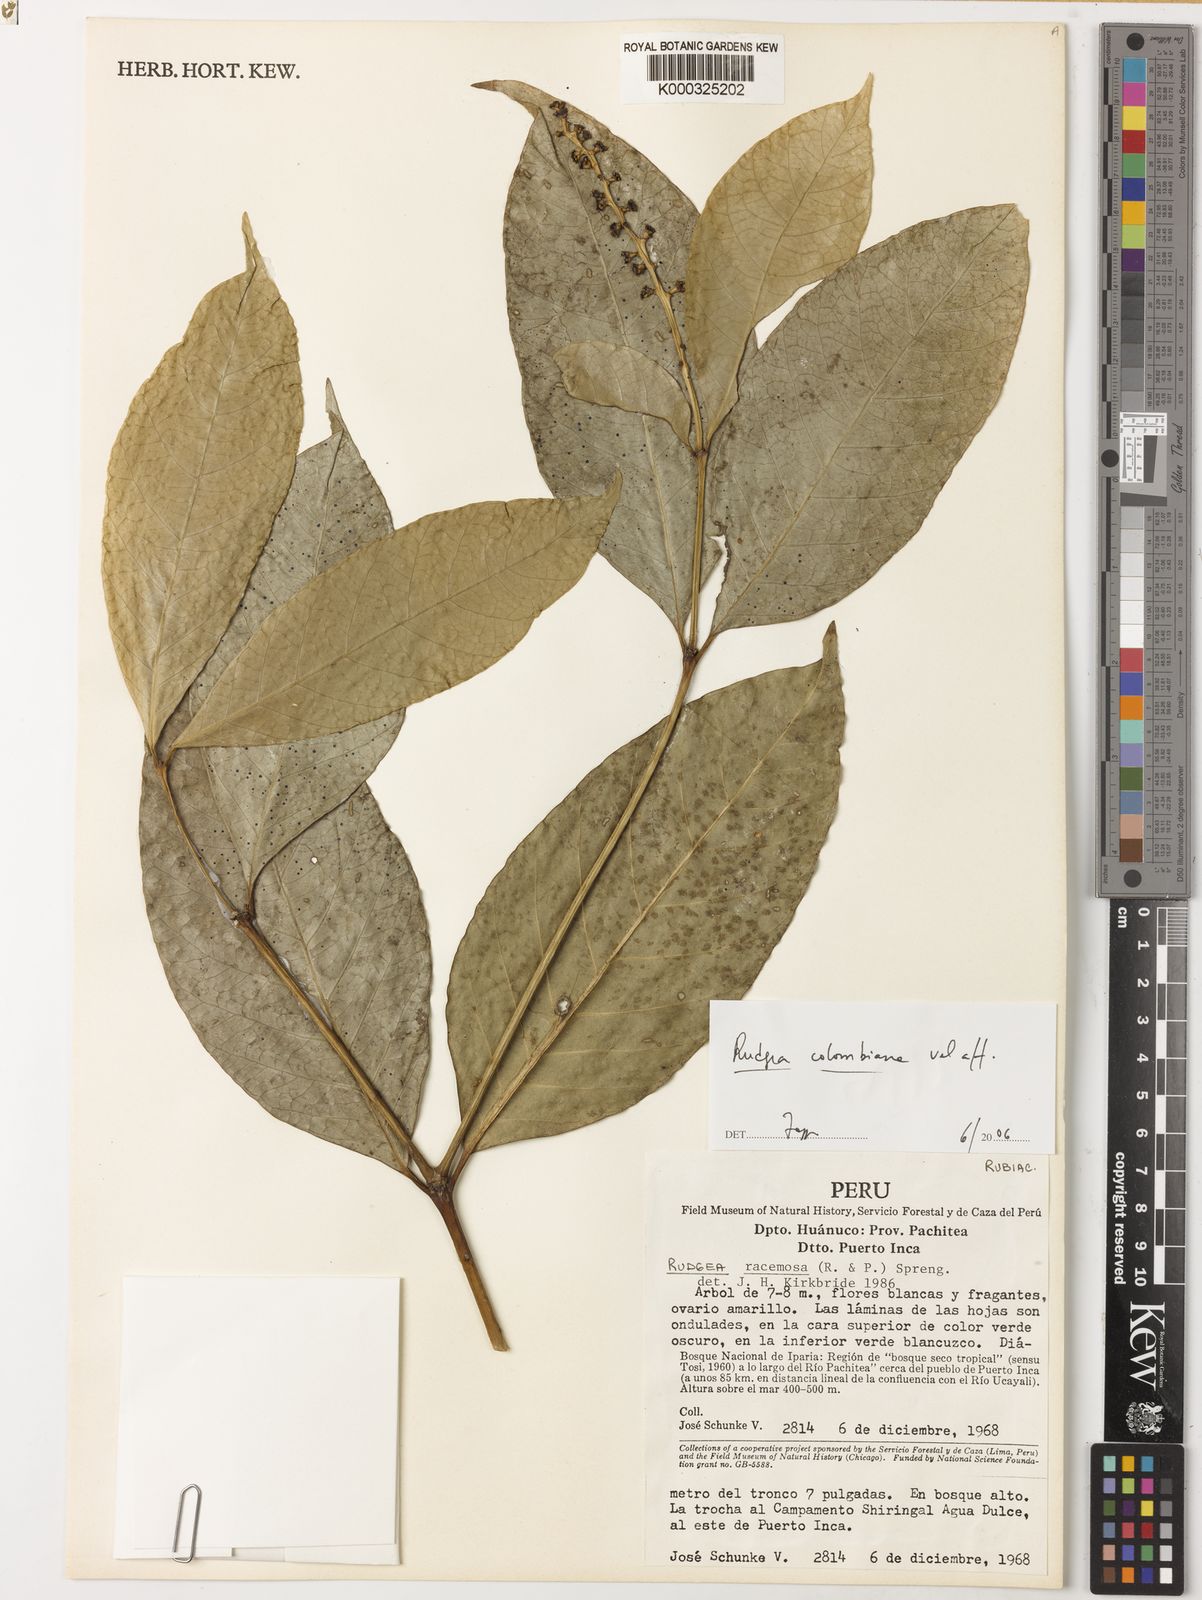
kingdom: Plantae
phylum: Tracheophyta
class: Magnoliopsida
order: Gentianales
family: Rubiaceae
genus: Rudgea
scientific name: Rudgea
